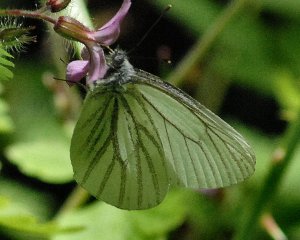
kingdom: Animalia
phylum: Arthropoda
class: Insecta
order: Lepidoptera
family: Pieridae
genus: Pieris
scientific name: Pieris marginalis
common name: Margined White
